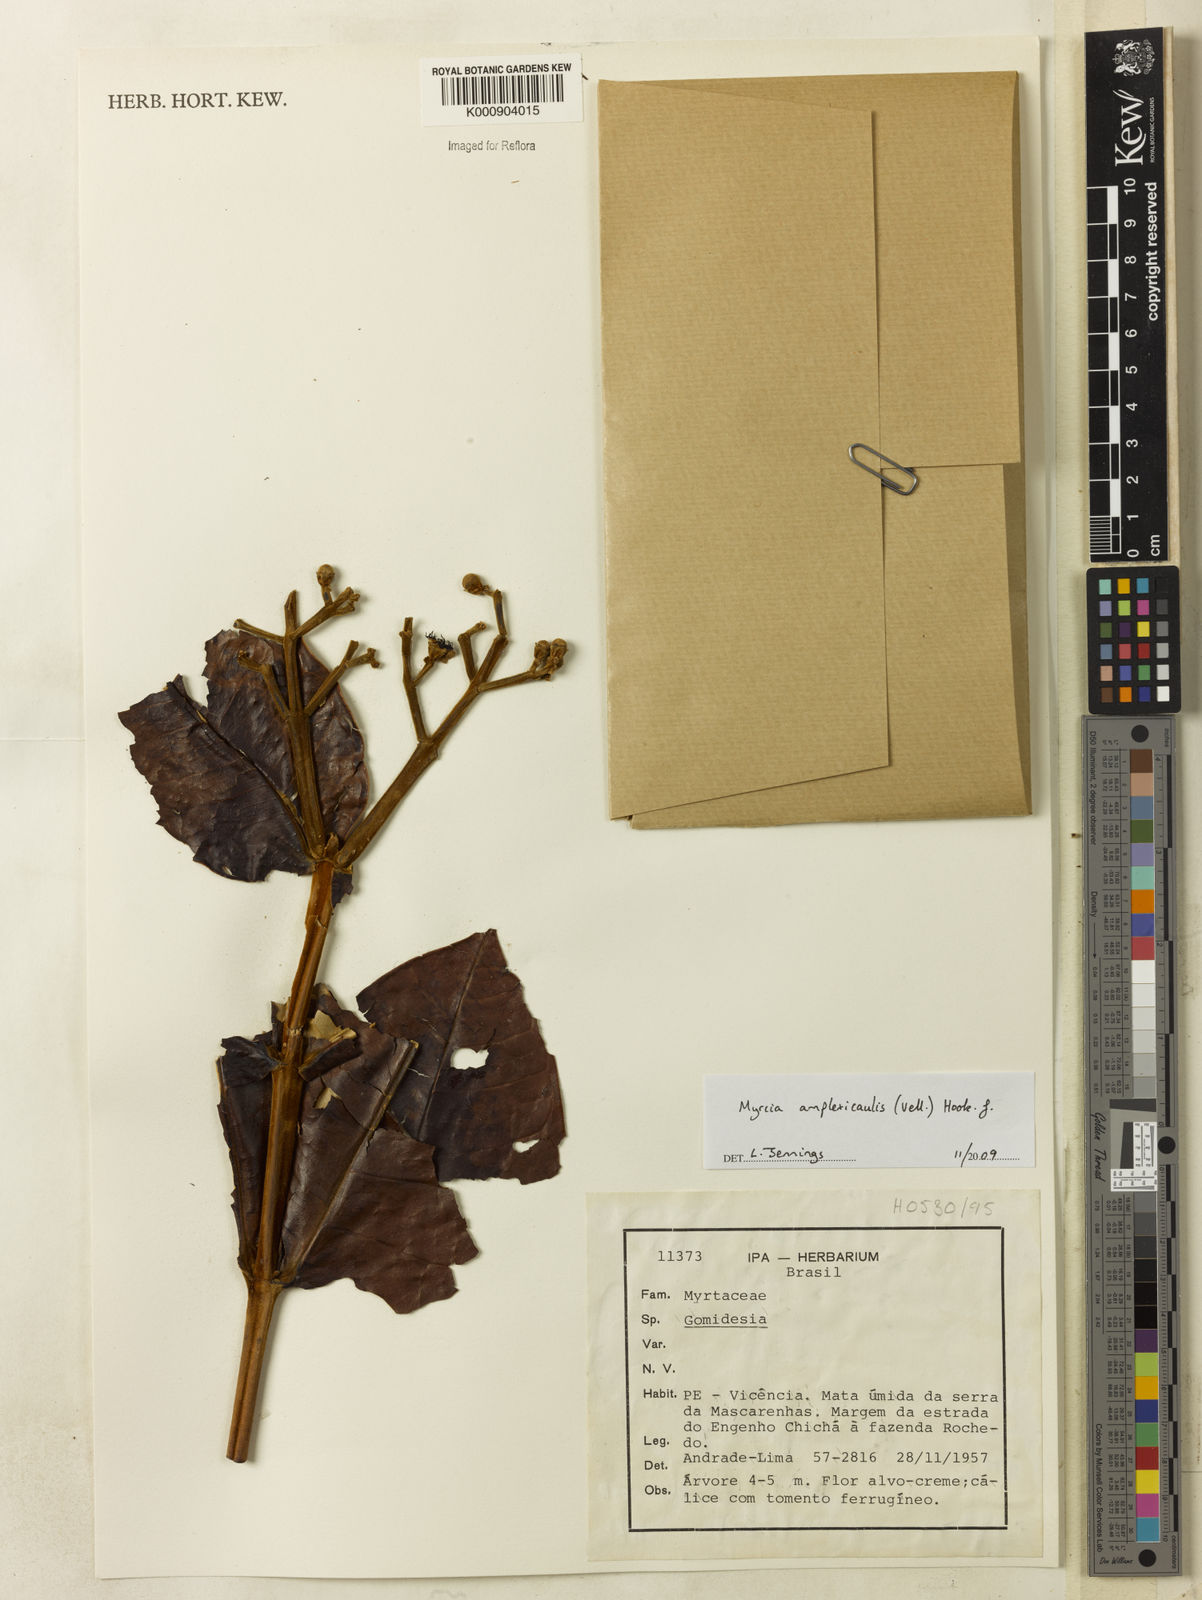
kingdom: Plantae
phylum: Tracheophyta
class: Magnoliopsida
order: Myrtales
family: Myrtaceae
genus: Myrcia
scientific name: Myrcia amplexicaulis
